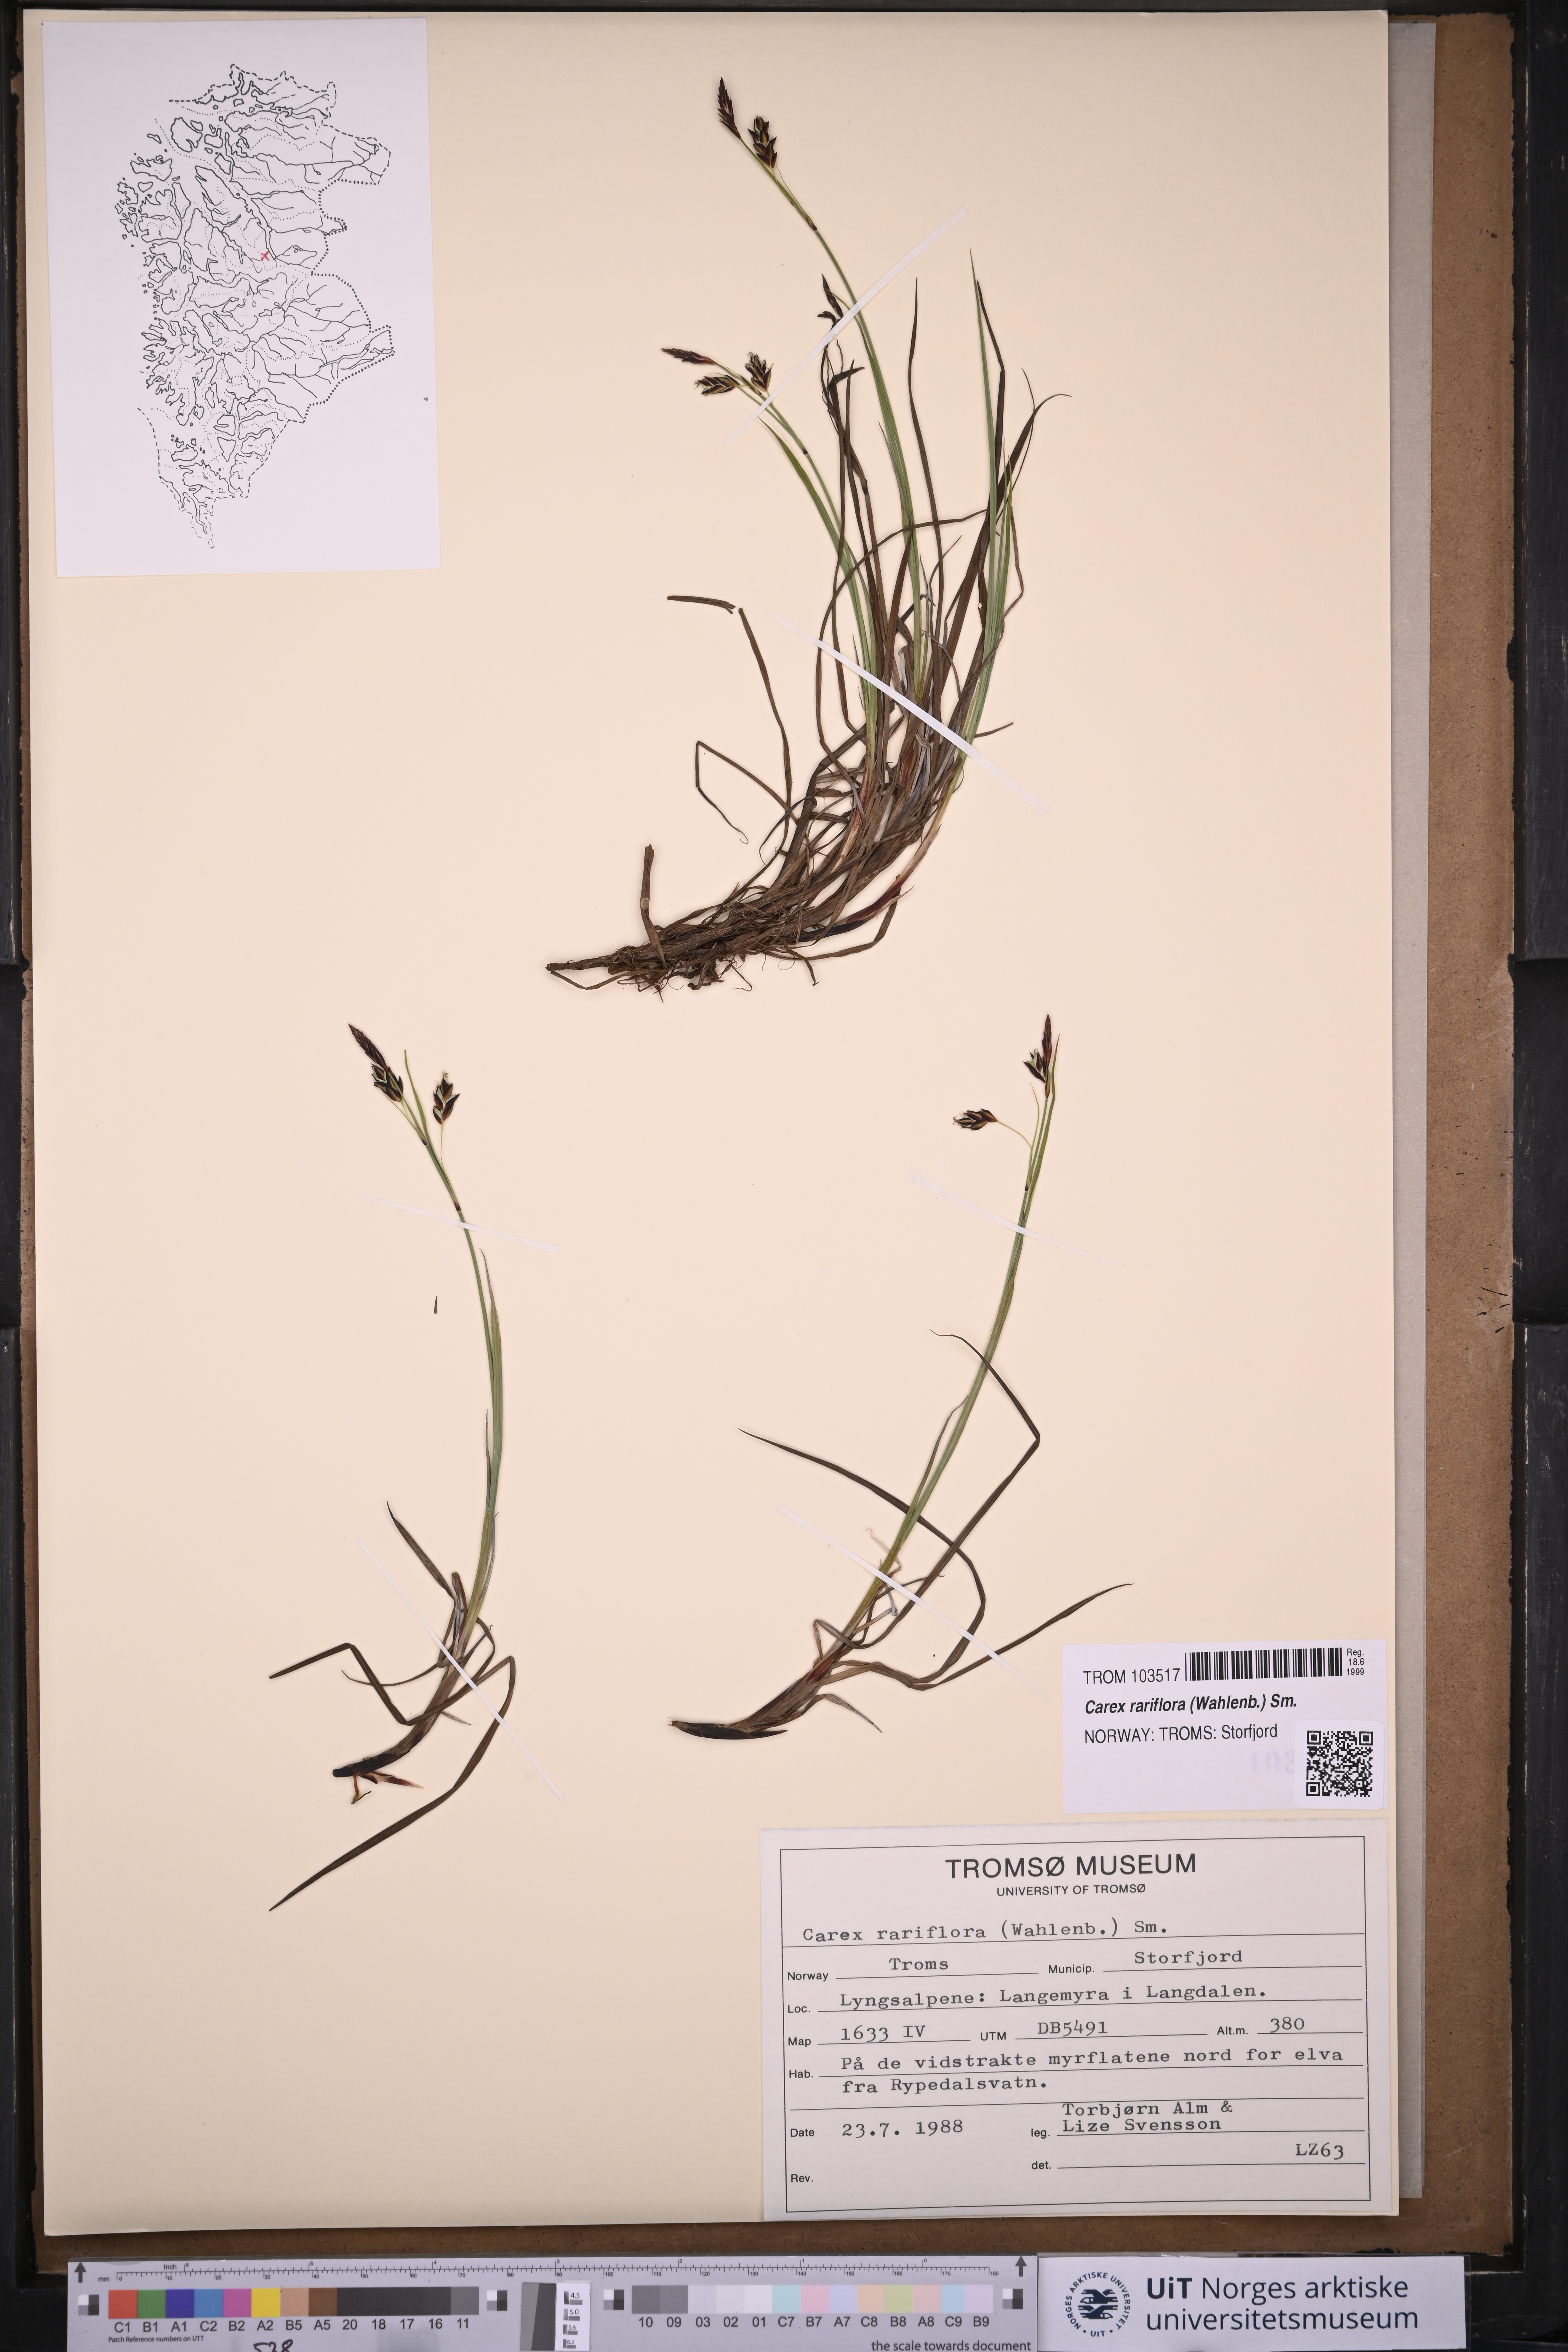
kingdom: Plantae
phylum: Tracheophyta
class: Liliopsida
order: Poales
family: Cyperaceae
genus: Carex
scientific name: Carex rariflora
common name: Loose-flowered alpine sedge
